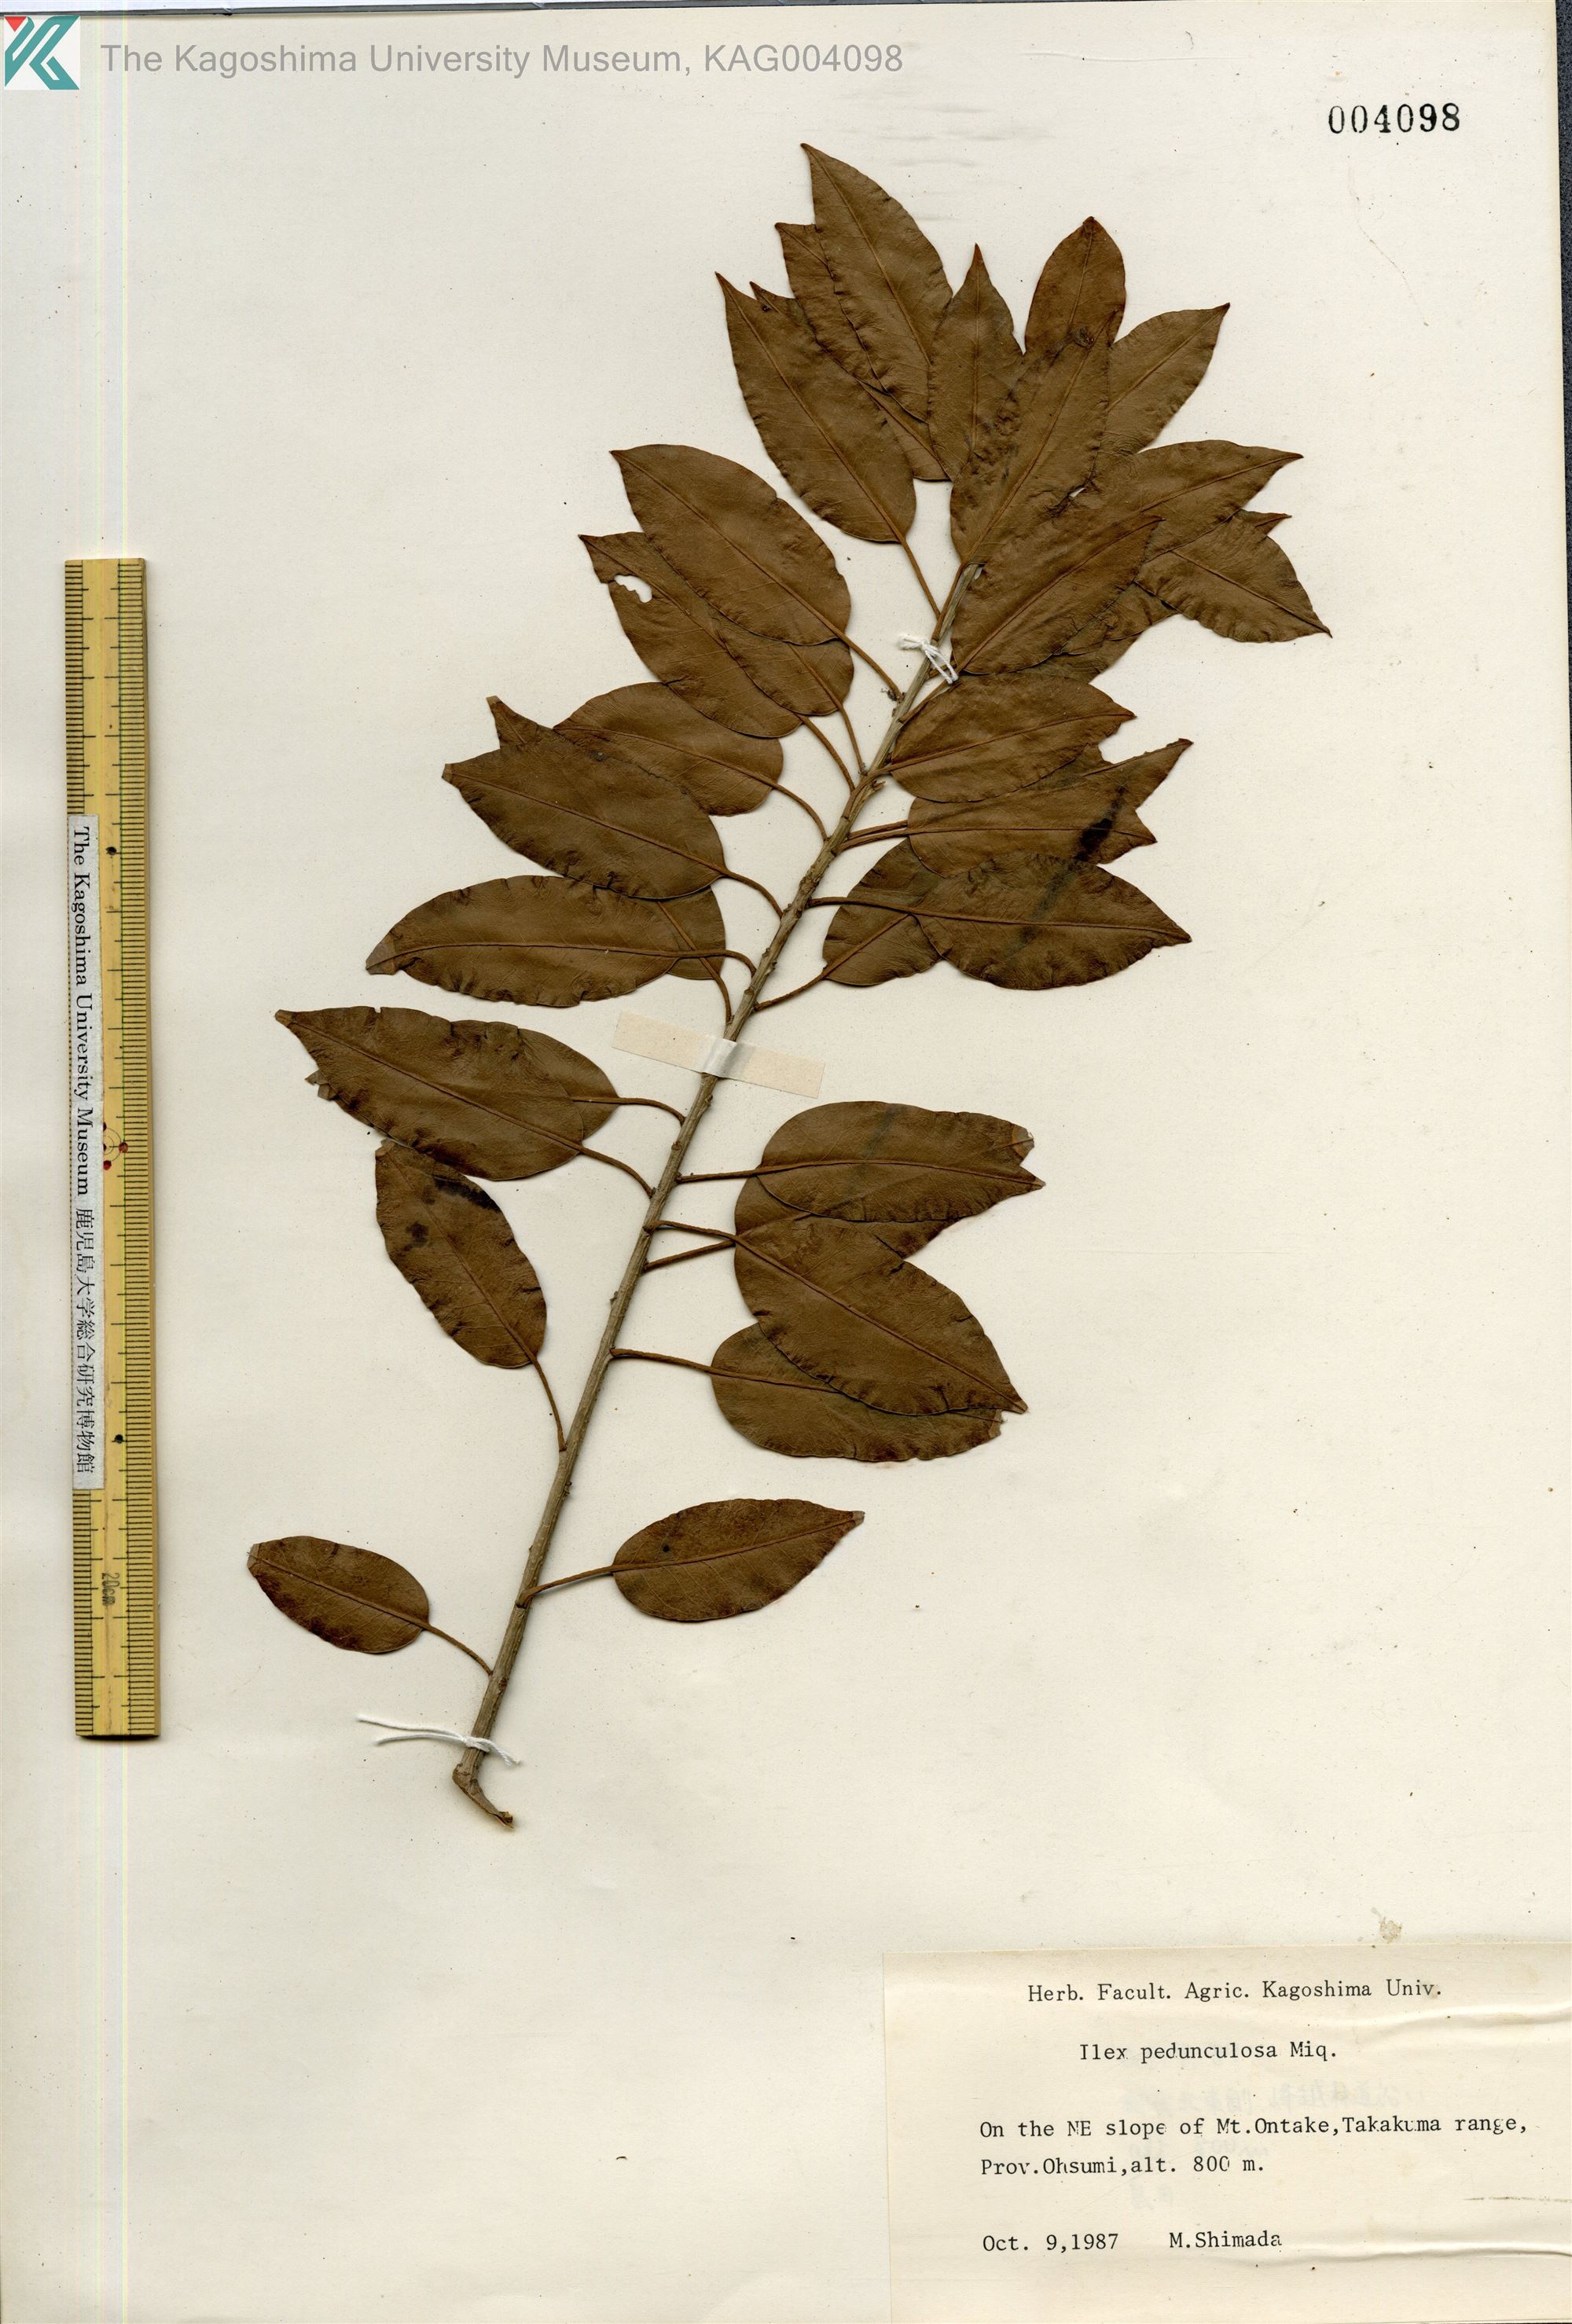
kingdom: Plantae
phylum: Tracheophyta
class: Magnoliopsida
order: Aquifoliales
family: Aquifoliaceae
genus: Ilex
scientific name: Ilex pedunculosa
